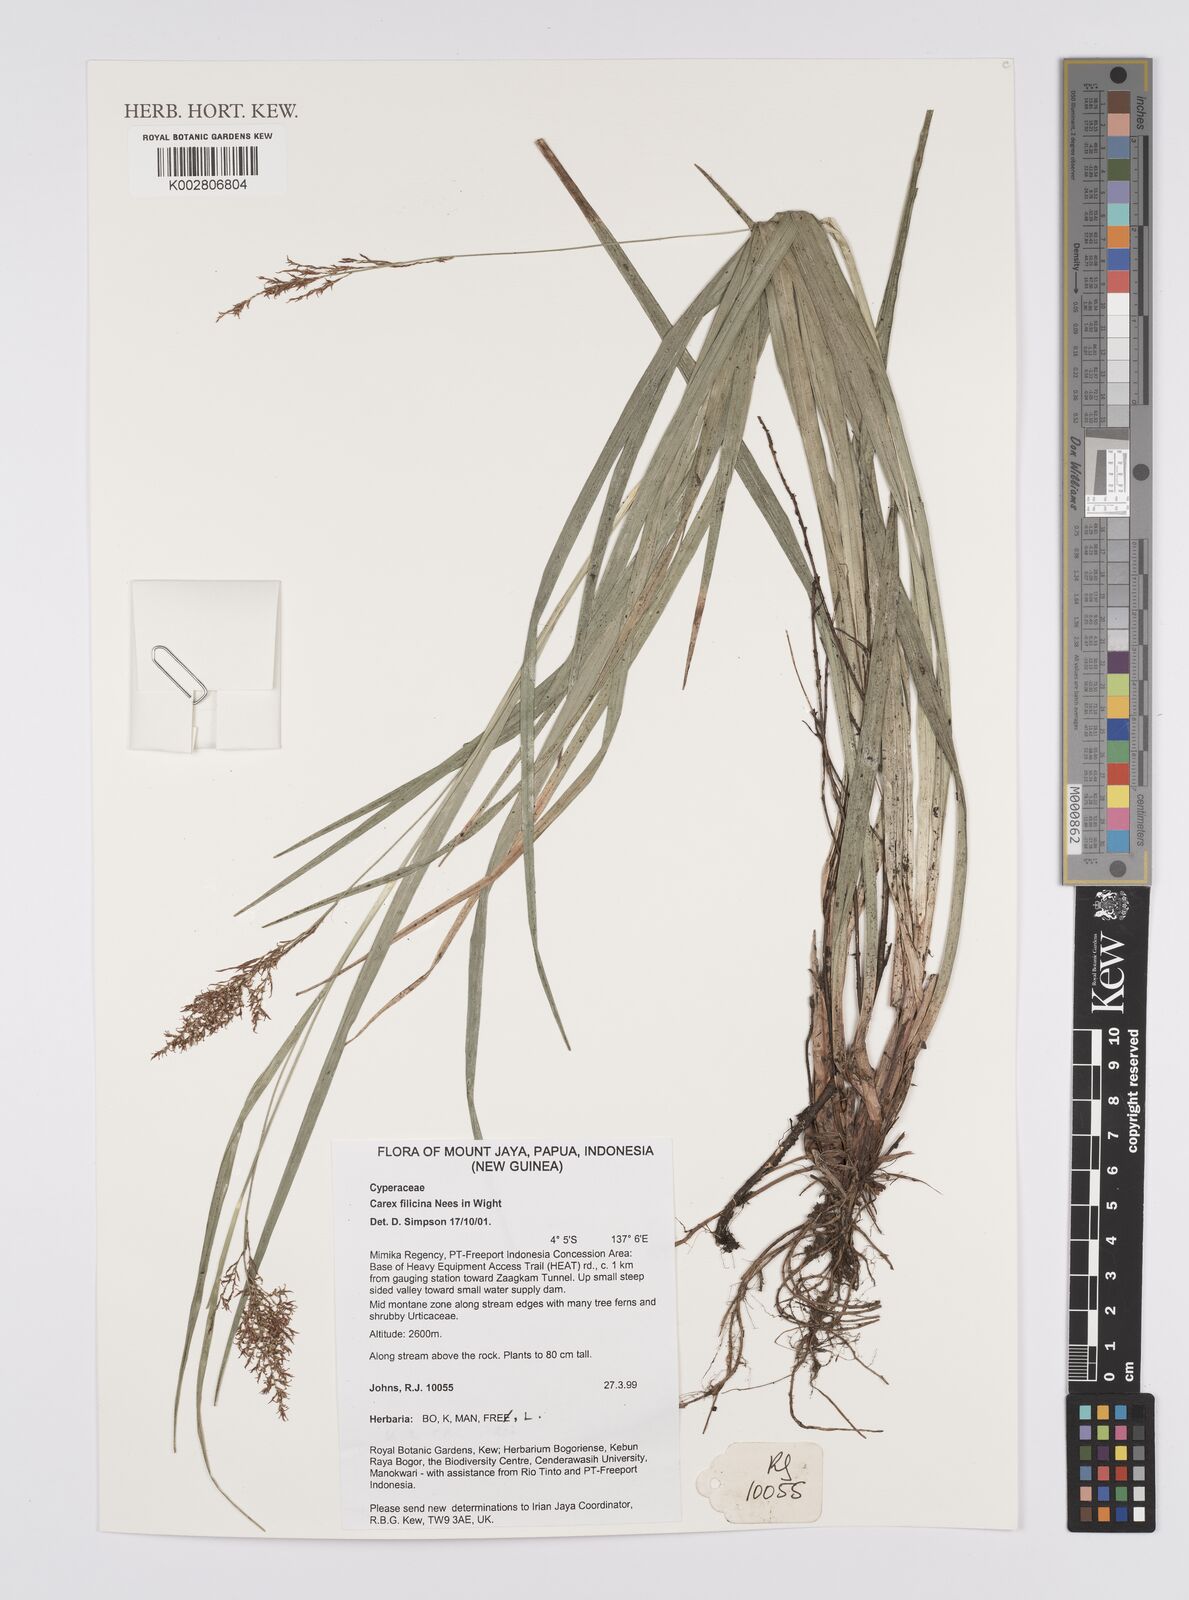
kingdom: Plantae
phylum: Tracheophyta
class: Liliopsida
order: Poales
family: Cyperaceae
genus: Carex
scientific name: Carex filicina
